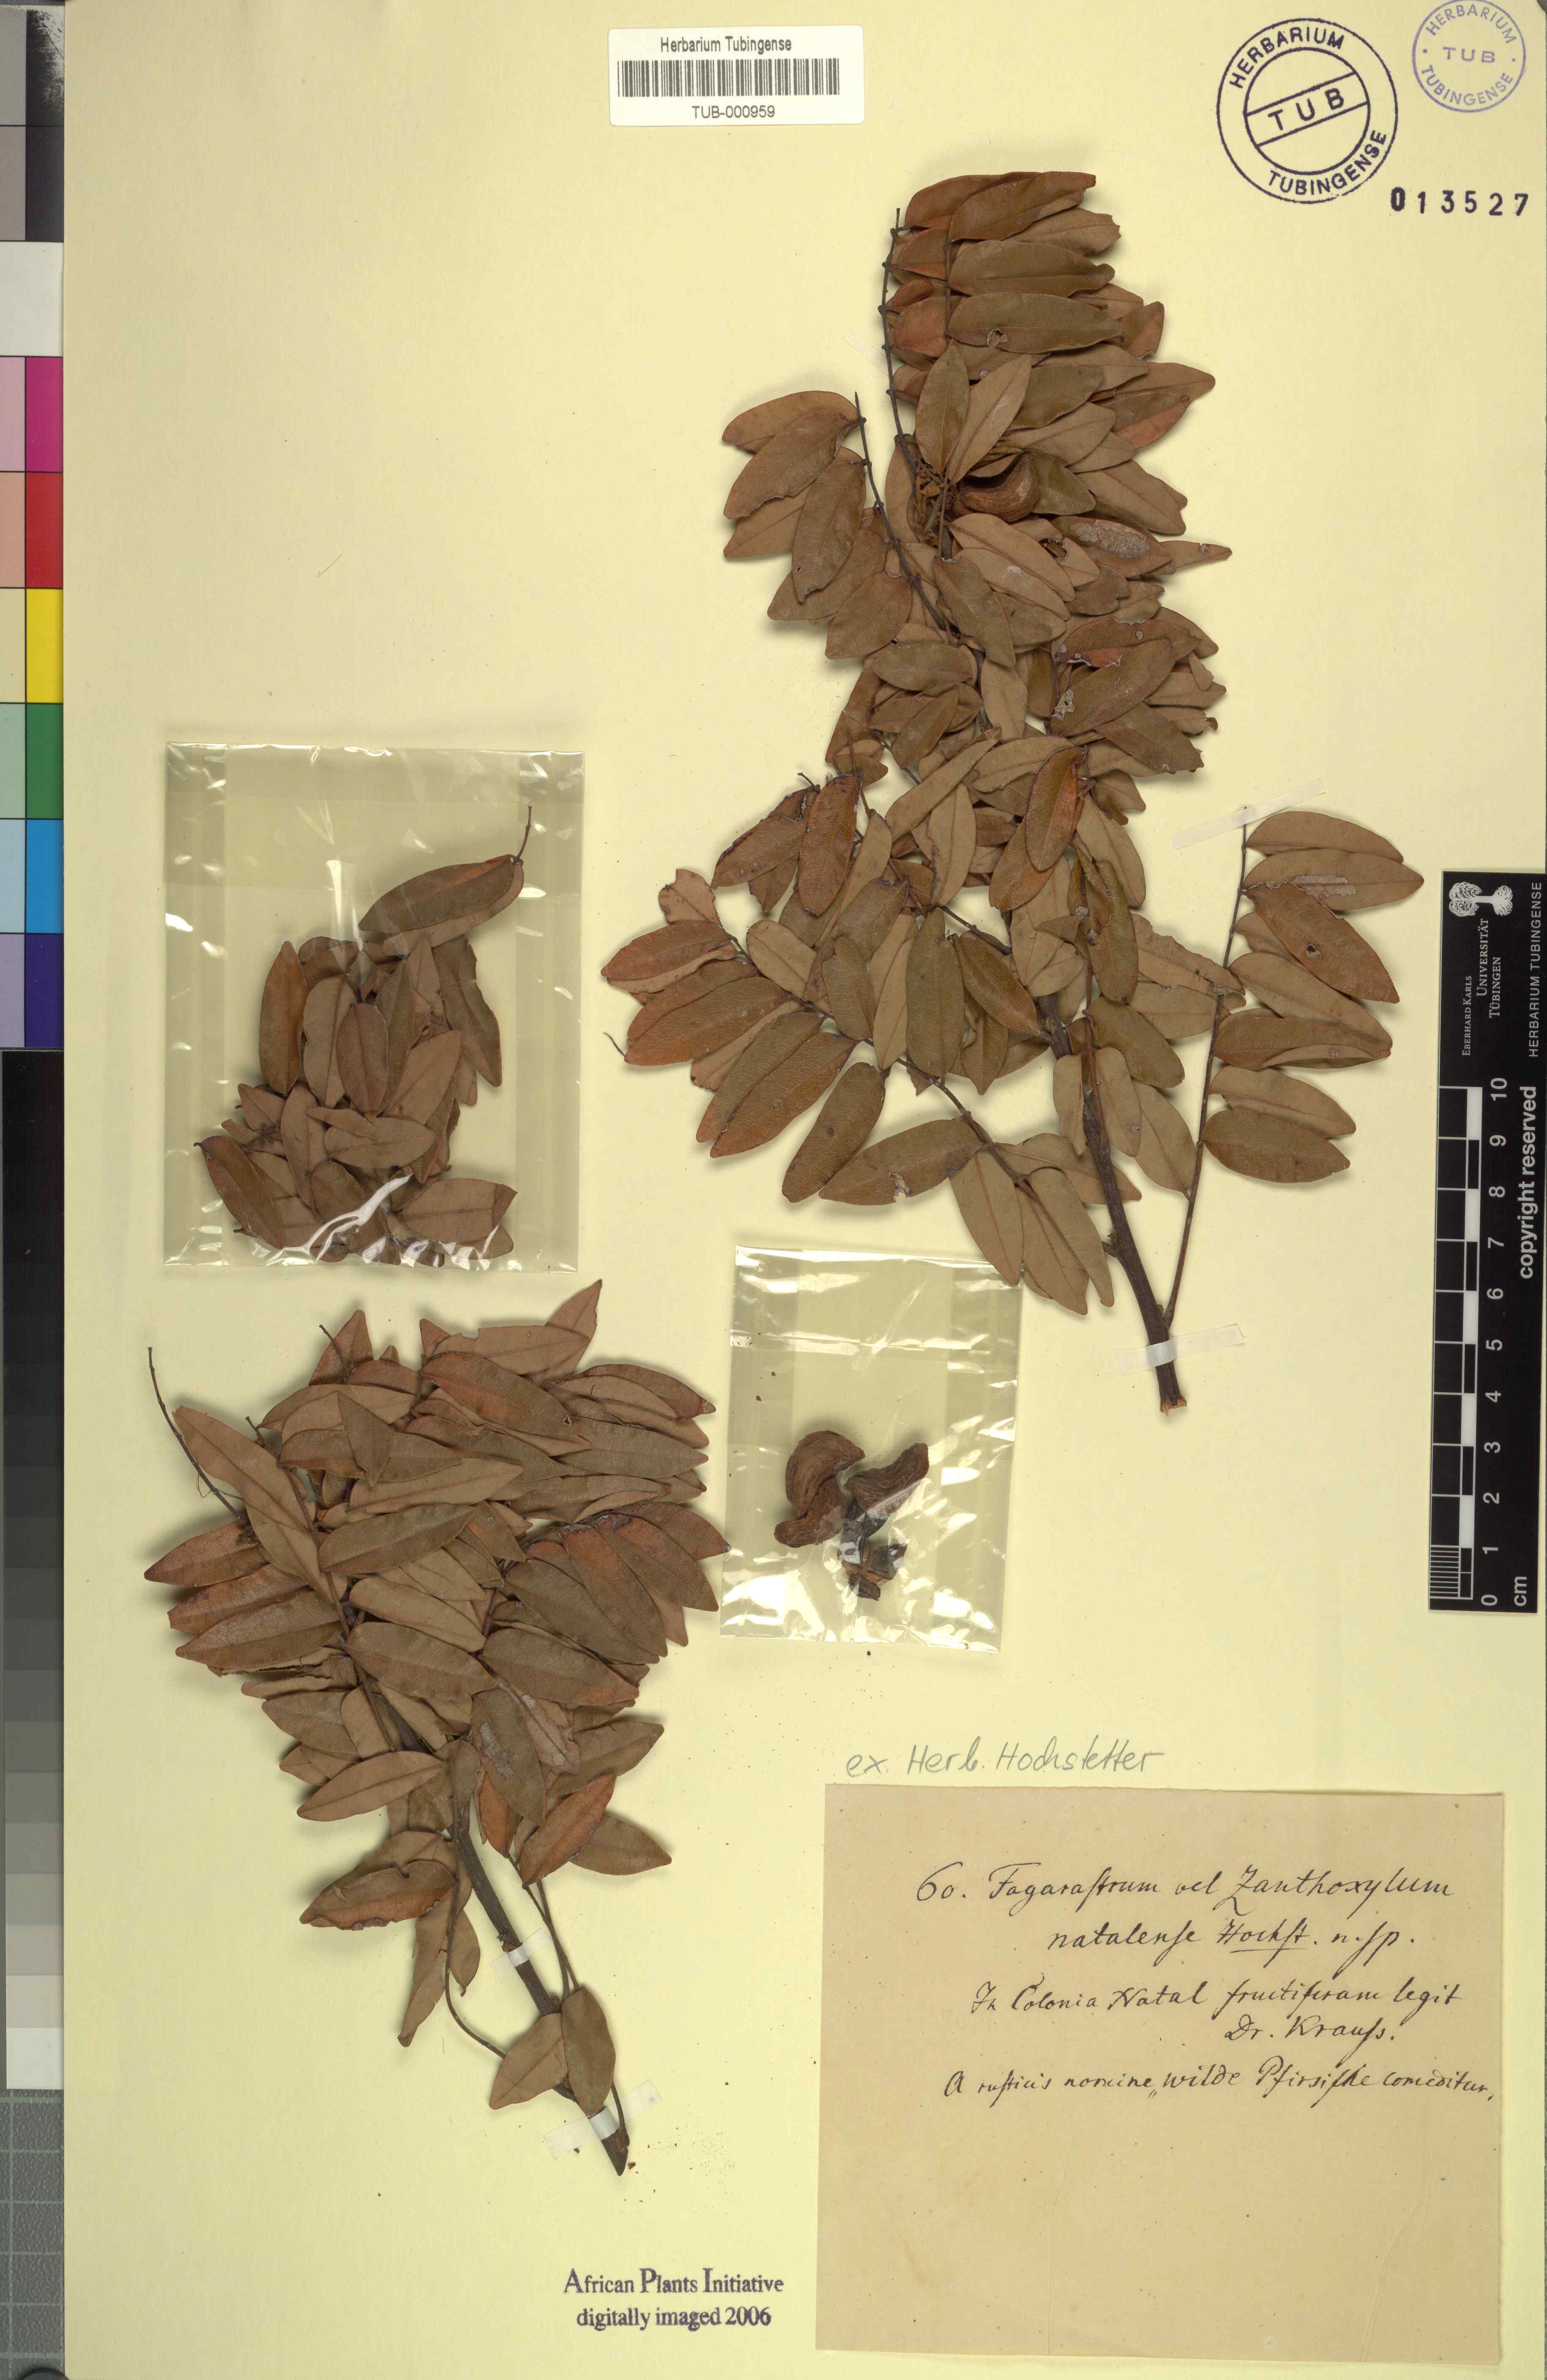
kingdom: Plantae
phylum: Tracheophyta
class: Magnoliopsida
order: Sapindales
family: Rutaceae
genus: Vepris
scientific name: Vepris natalensis
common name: Slender cherry-orange
